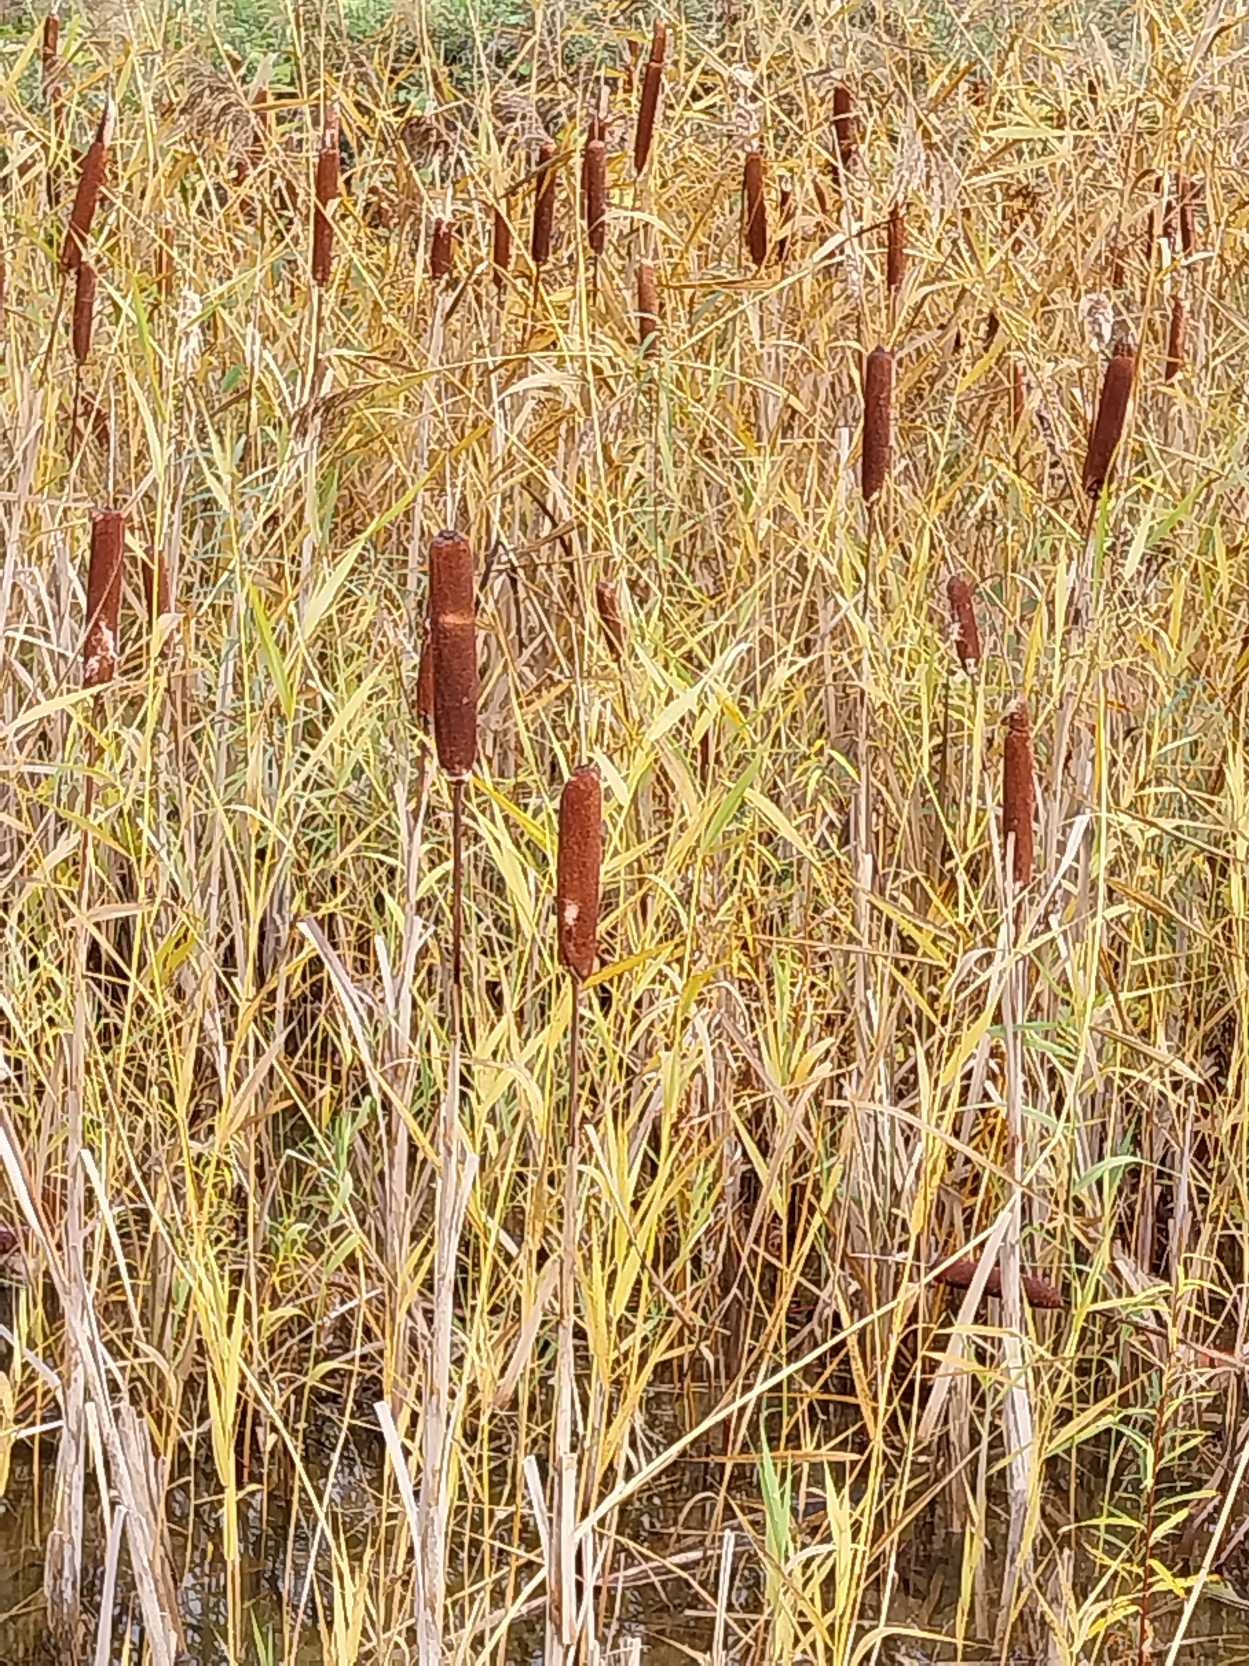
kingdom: Plantae
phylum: Tracheophyta
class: Liliopsida
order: Poales
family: Typhaceae
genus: Typha
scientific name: Typha latifolia
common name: Bredbladet dunhammer
